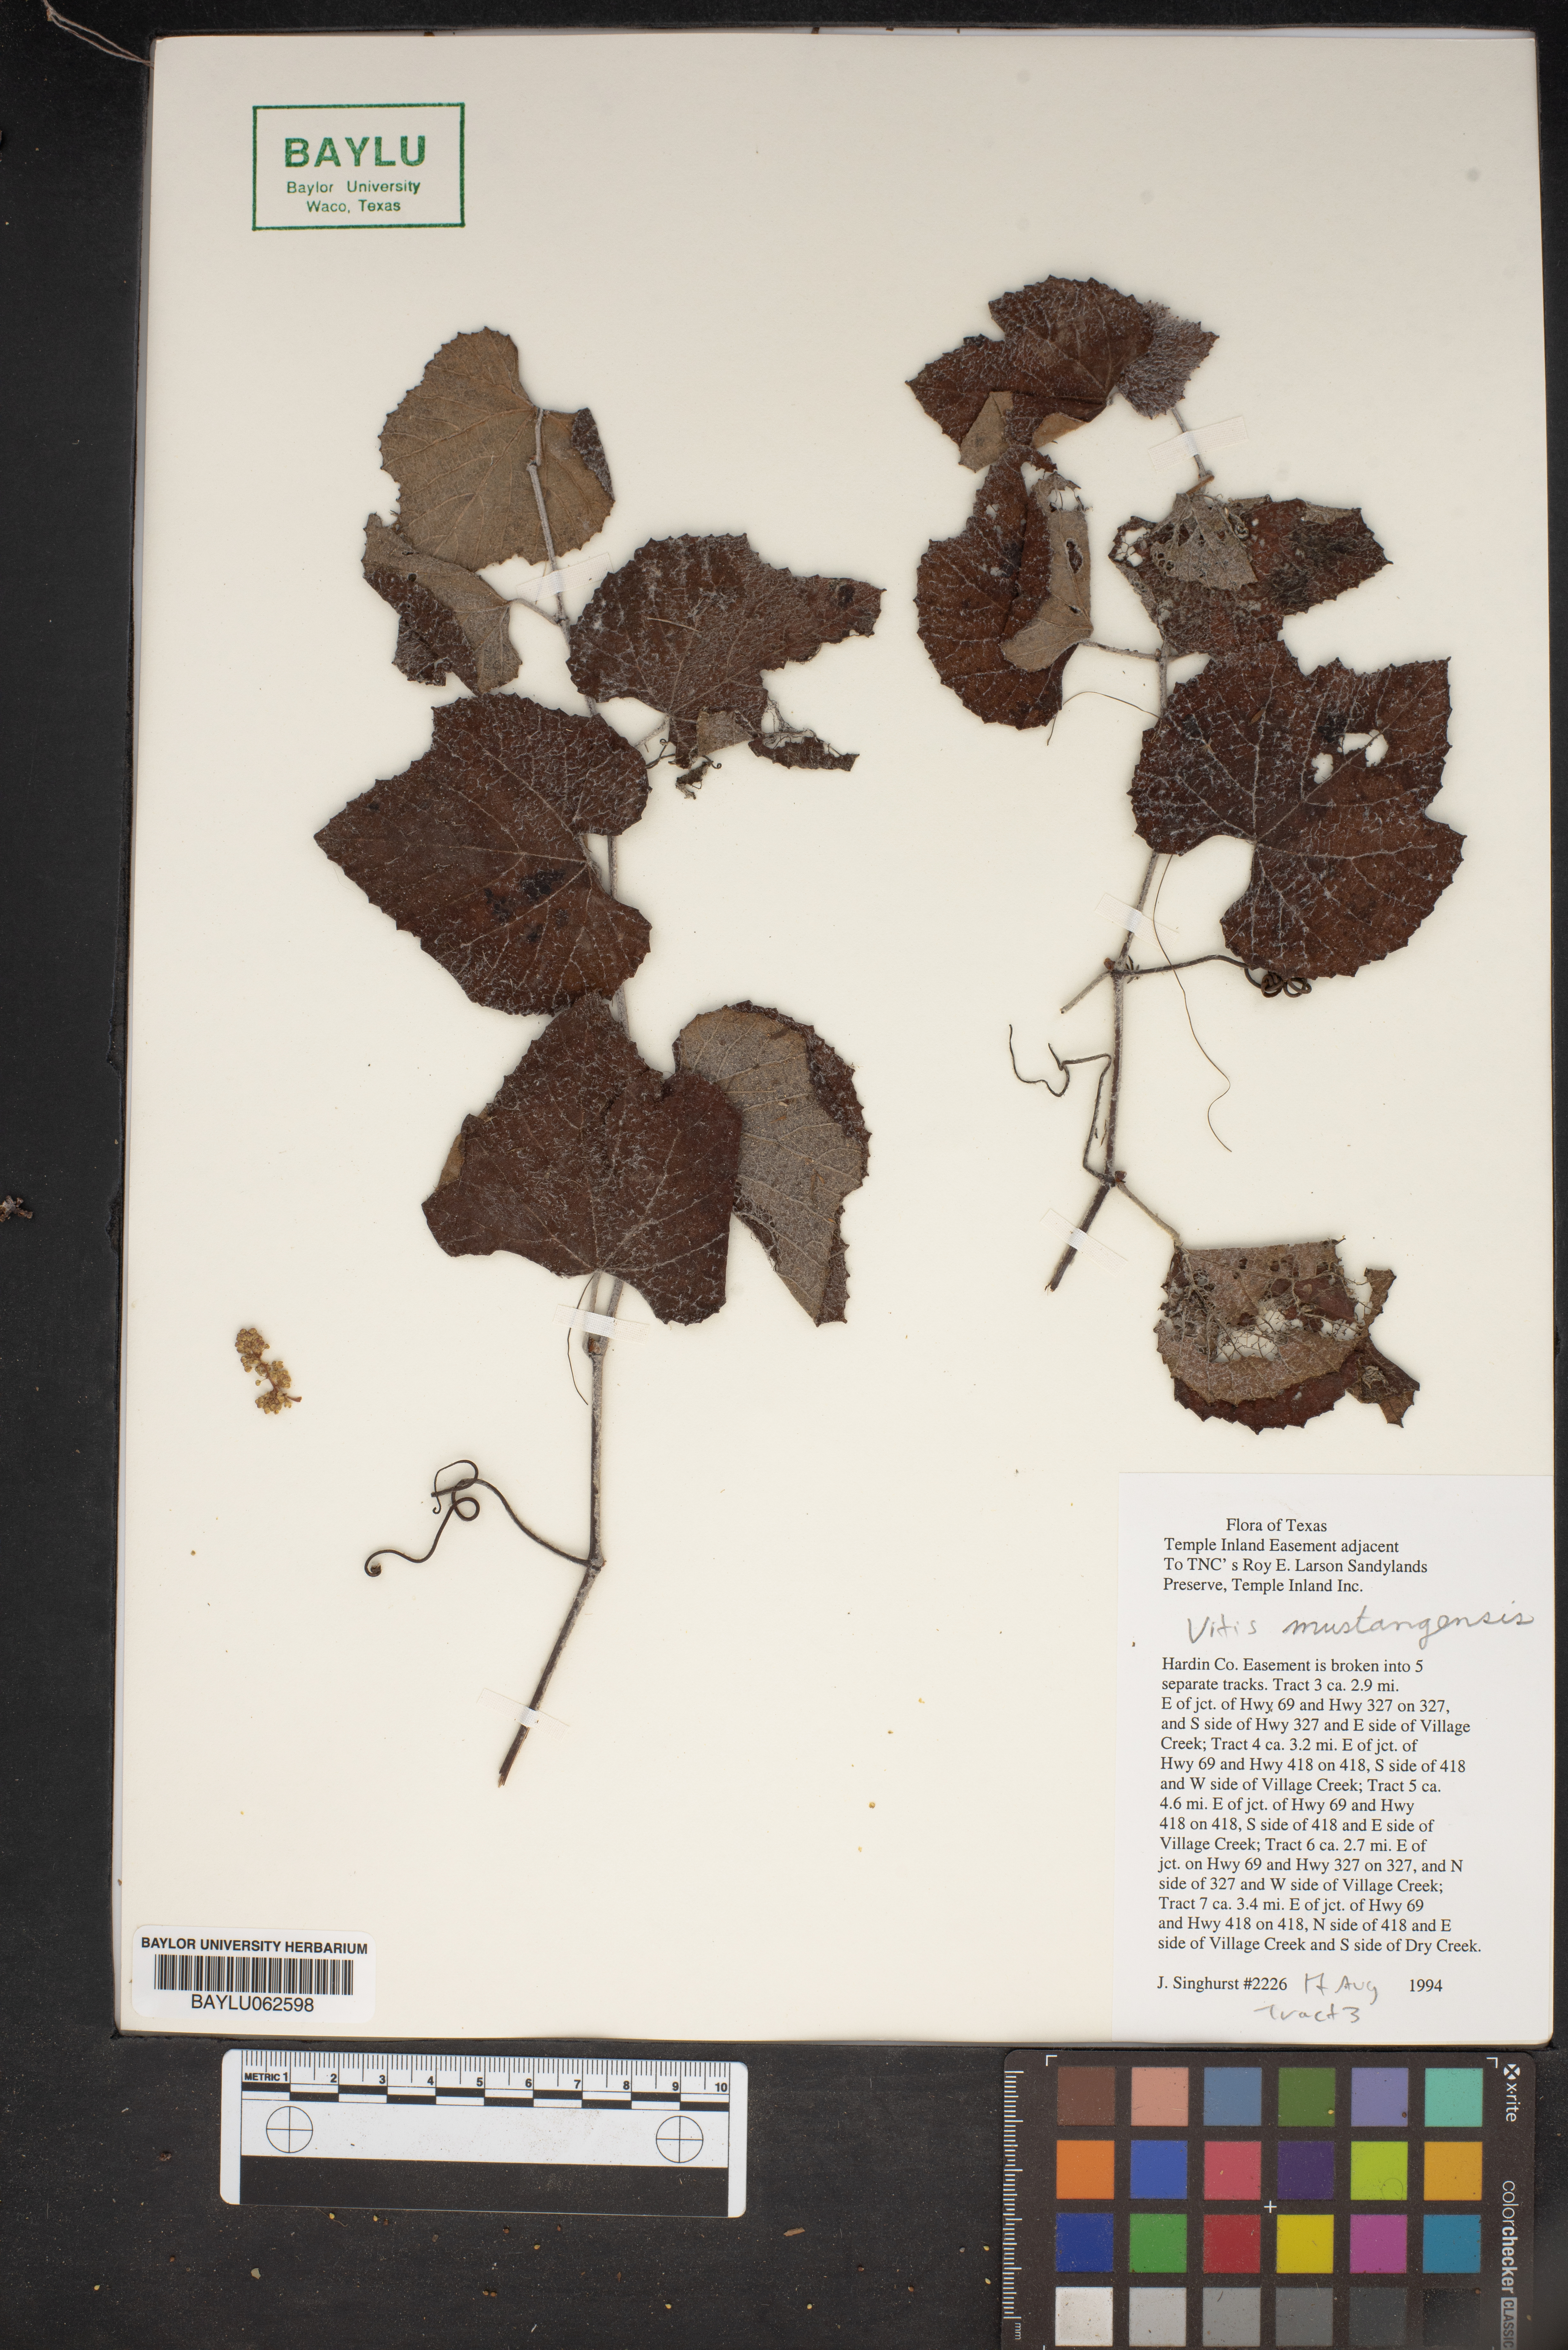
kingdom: Plantae
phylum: Tracheophyta
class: Magnoliopsida
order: Vitales
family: Vitaceae
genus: Vitis
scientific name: Vitis mustangensis
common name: Mustang grape
